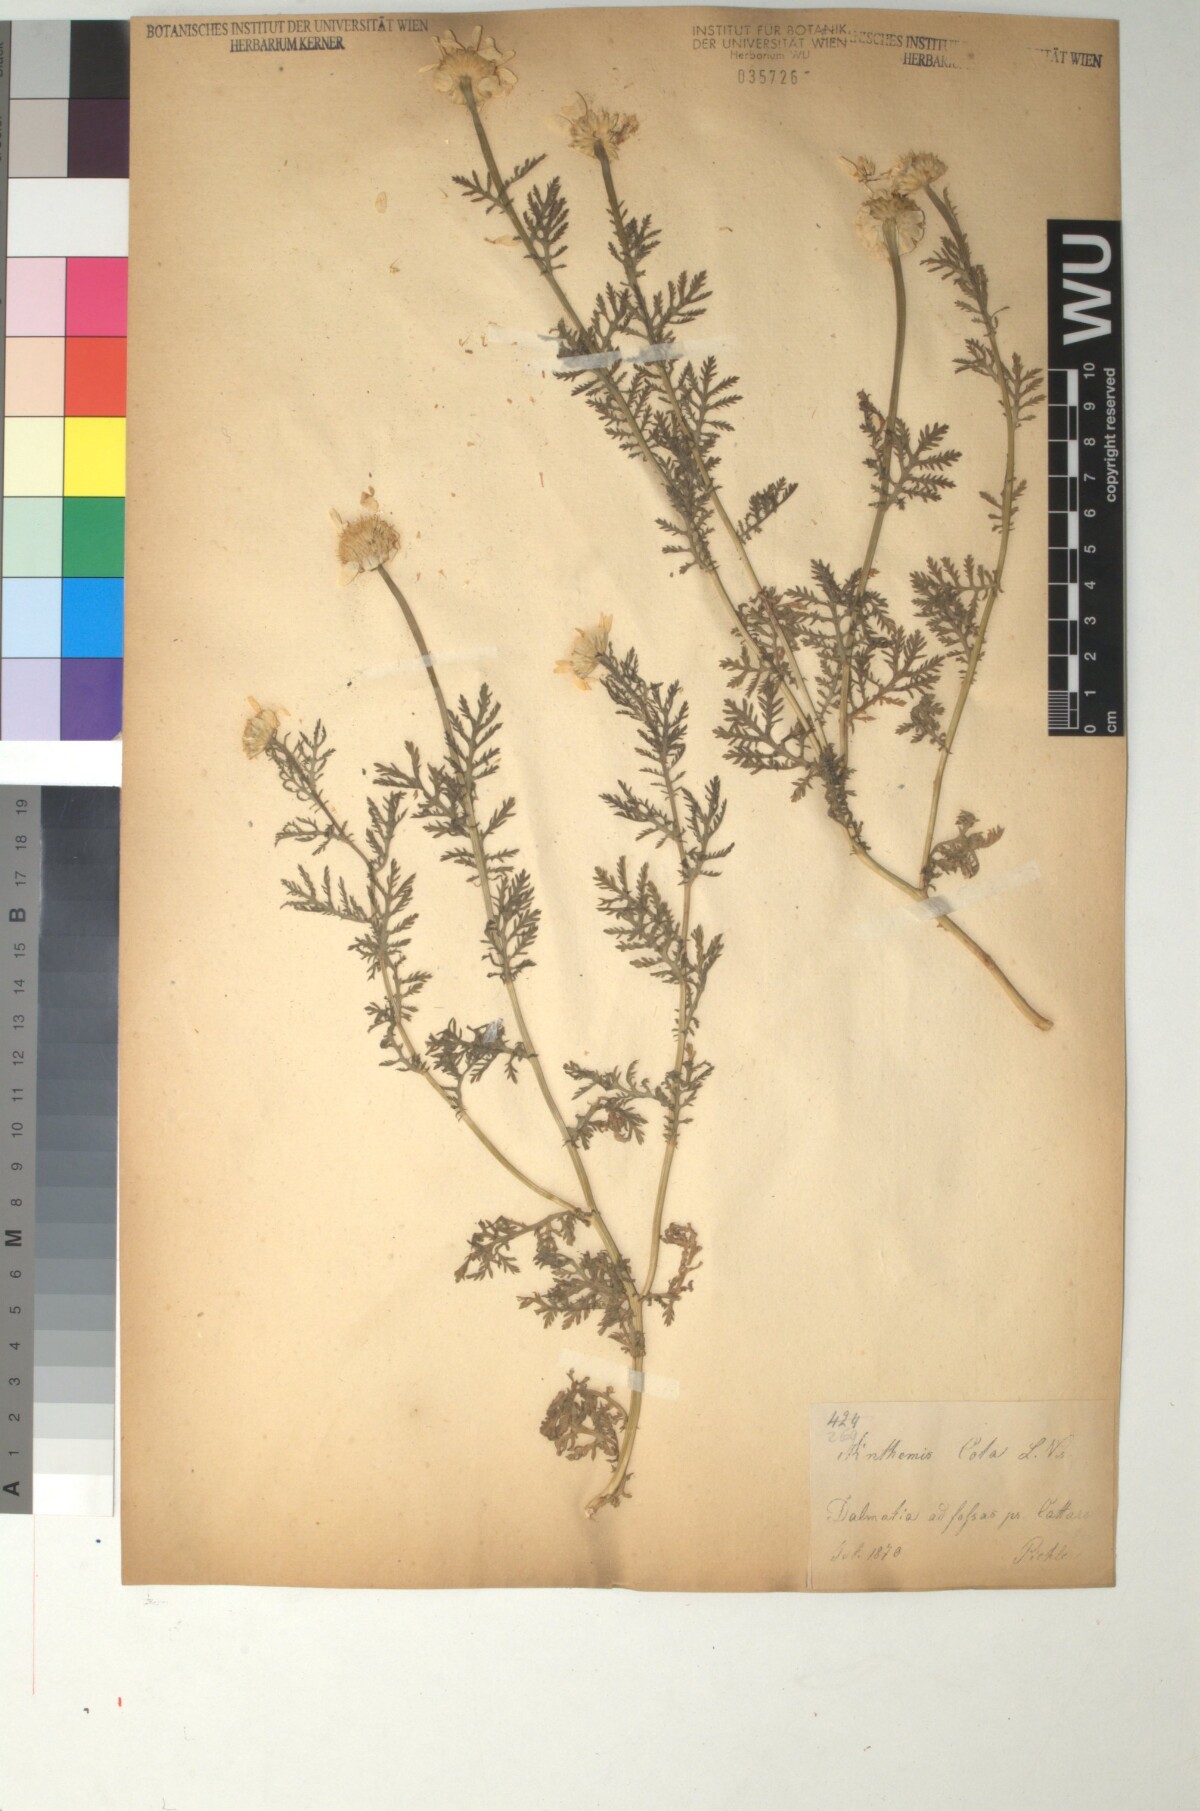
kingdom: Plantae
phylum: Tracheophyta
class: Magnoliopsida
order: Asterales
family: Asteraceae
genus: Cota
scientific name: Cota altissima
